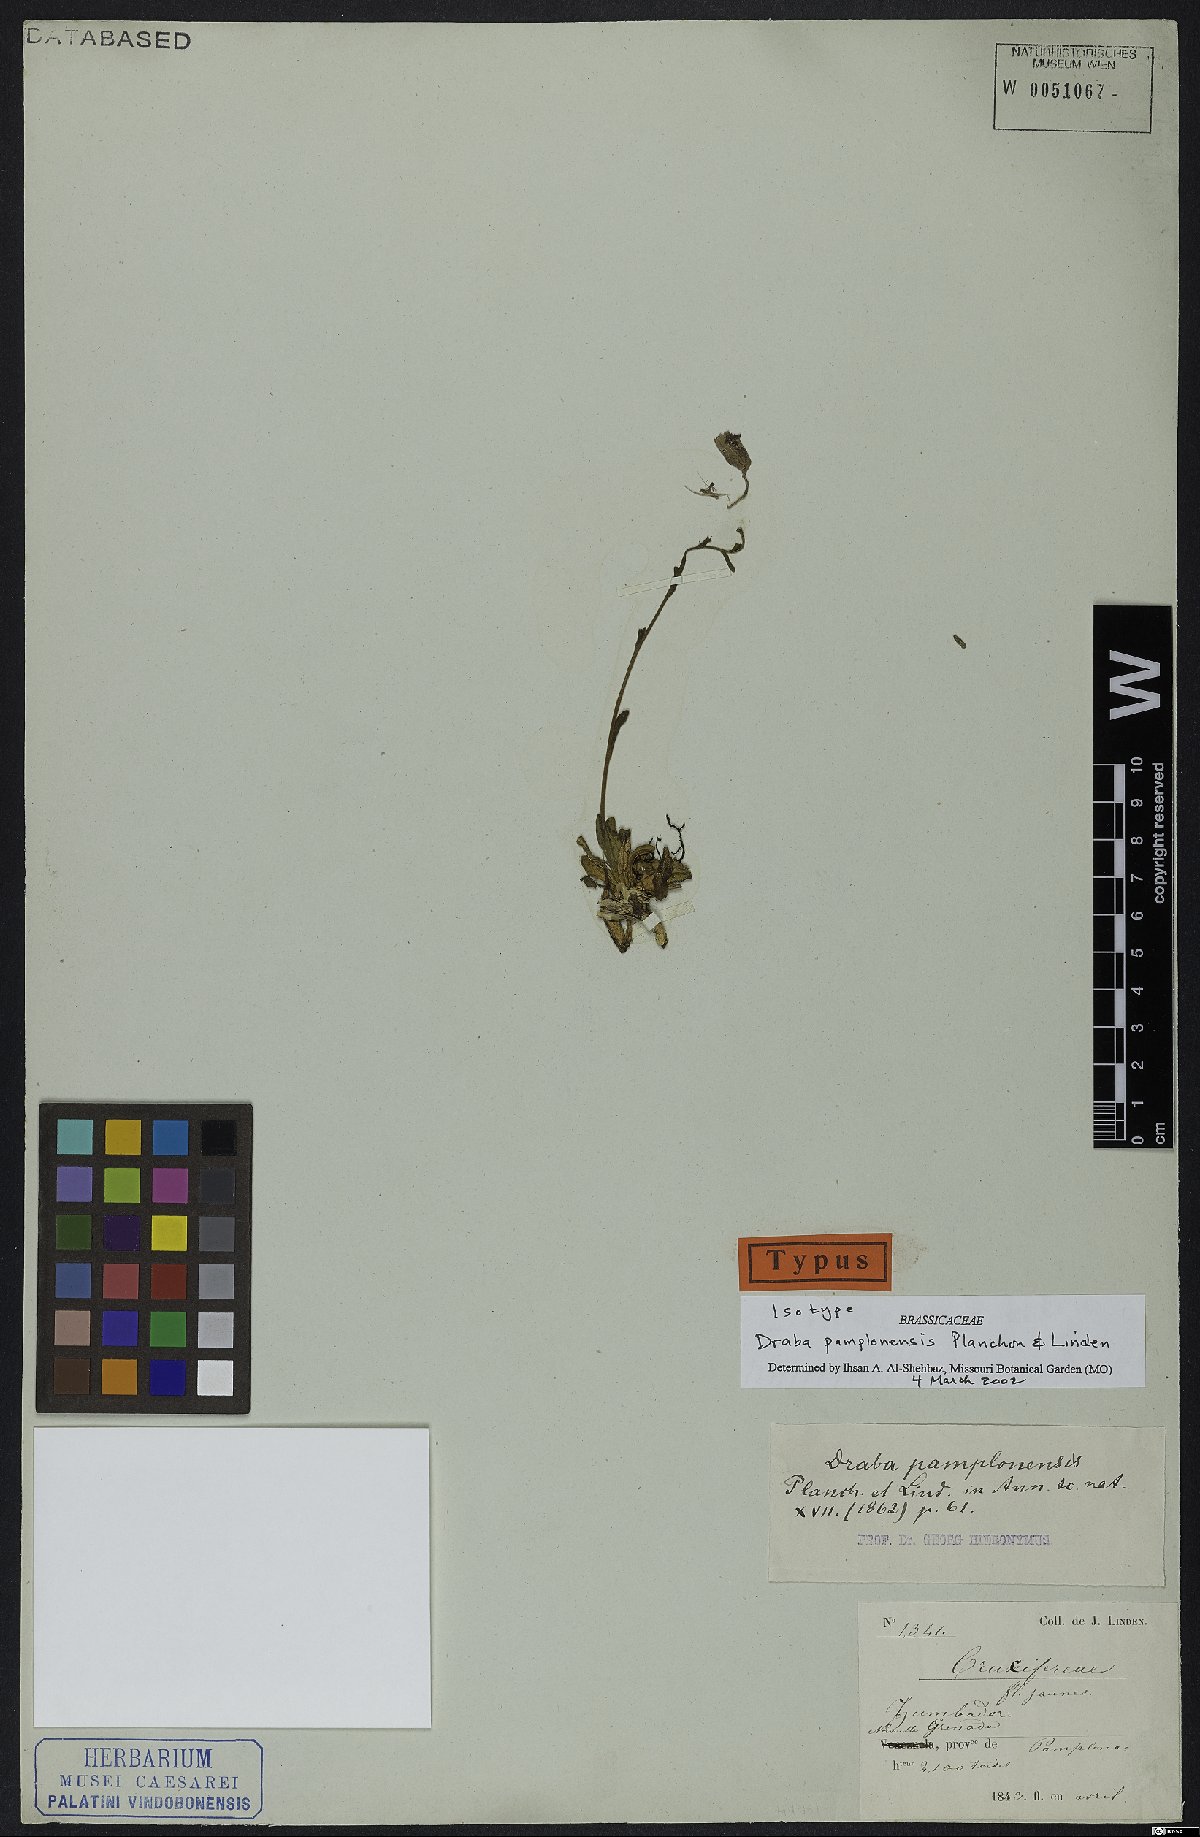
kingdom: Plantae
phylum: Tracheophyta
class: Magnoliopsida
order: Brassicales
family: Brassicaceae
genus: Draba
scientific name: Draba pamplonensis
